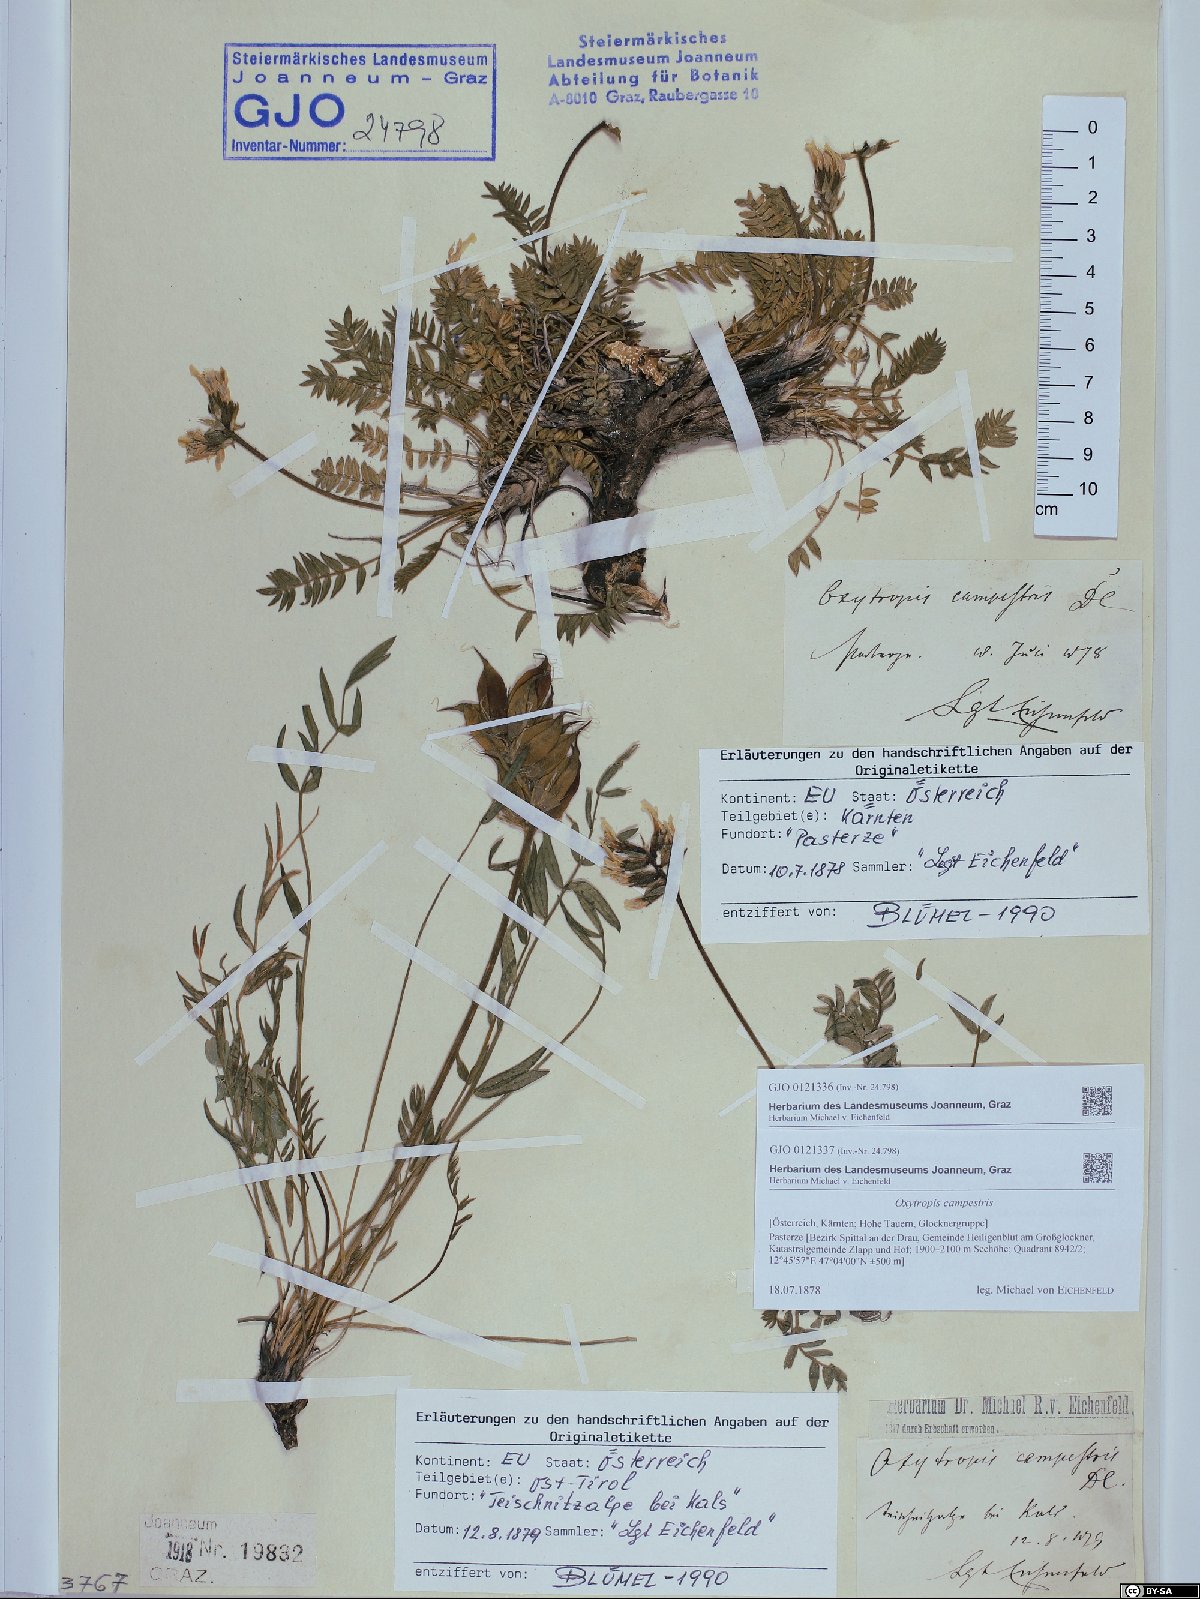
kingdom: Plantae
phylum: Tracheophyta
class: Magnoliopsida
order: Fabales
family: Fabaceae
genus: Oxytropis
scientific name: Oxytropis campestris
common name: Field locoweed
